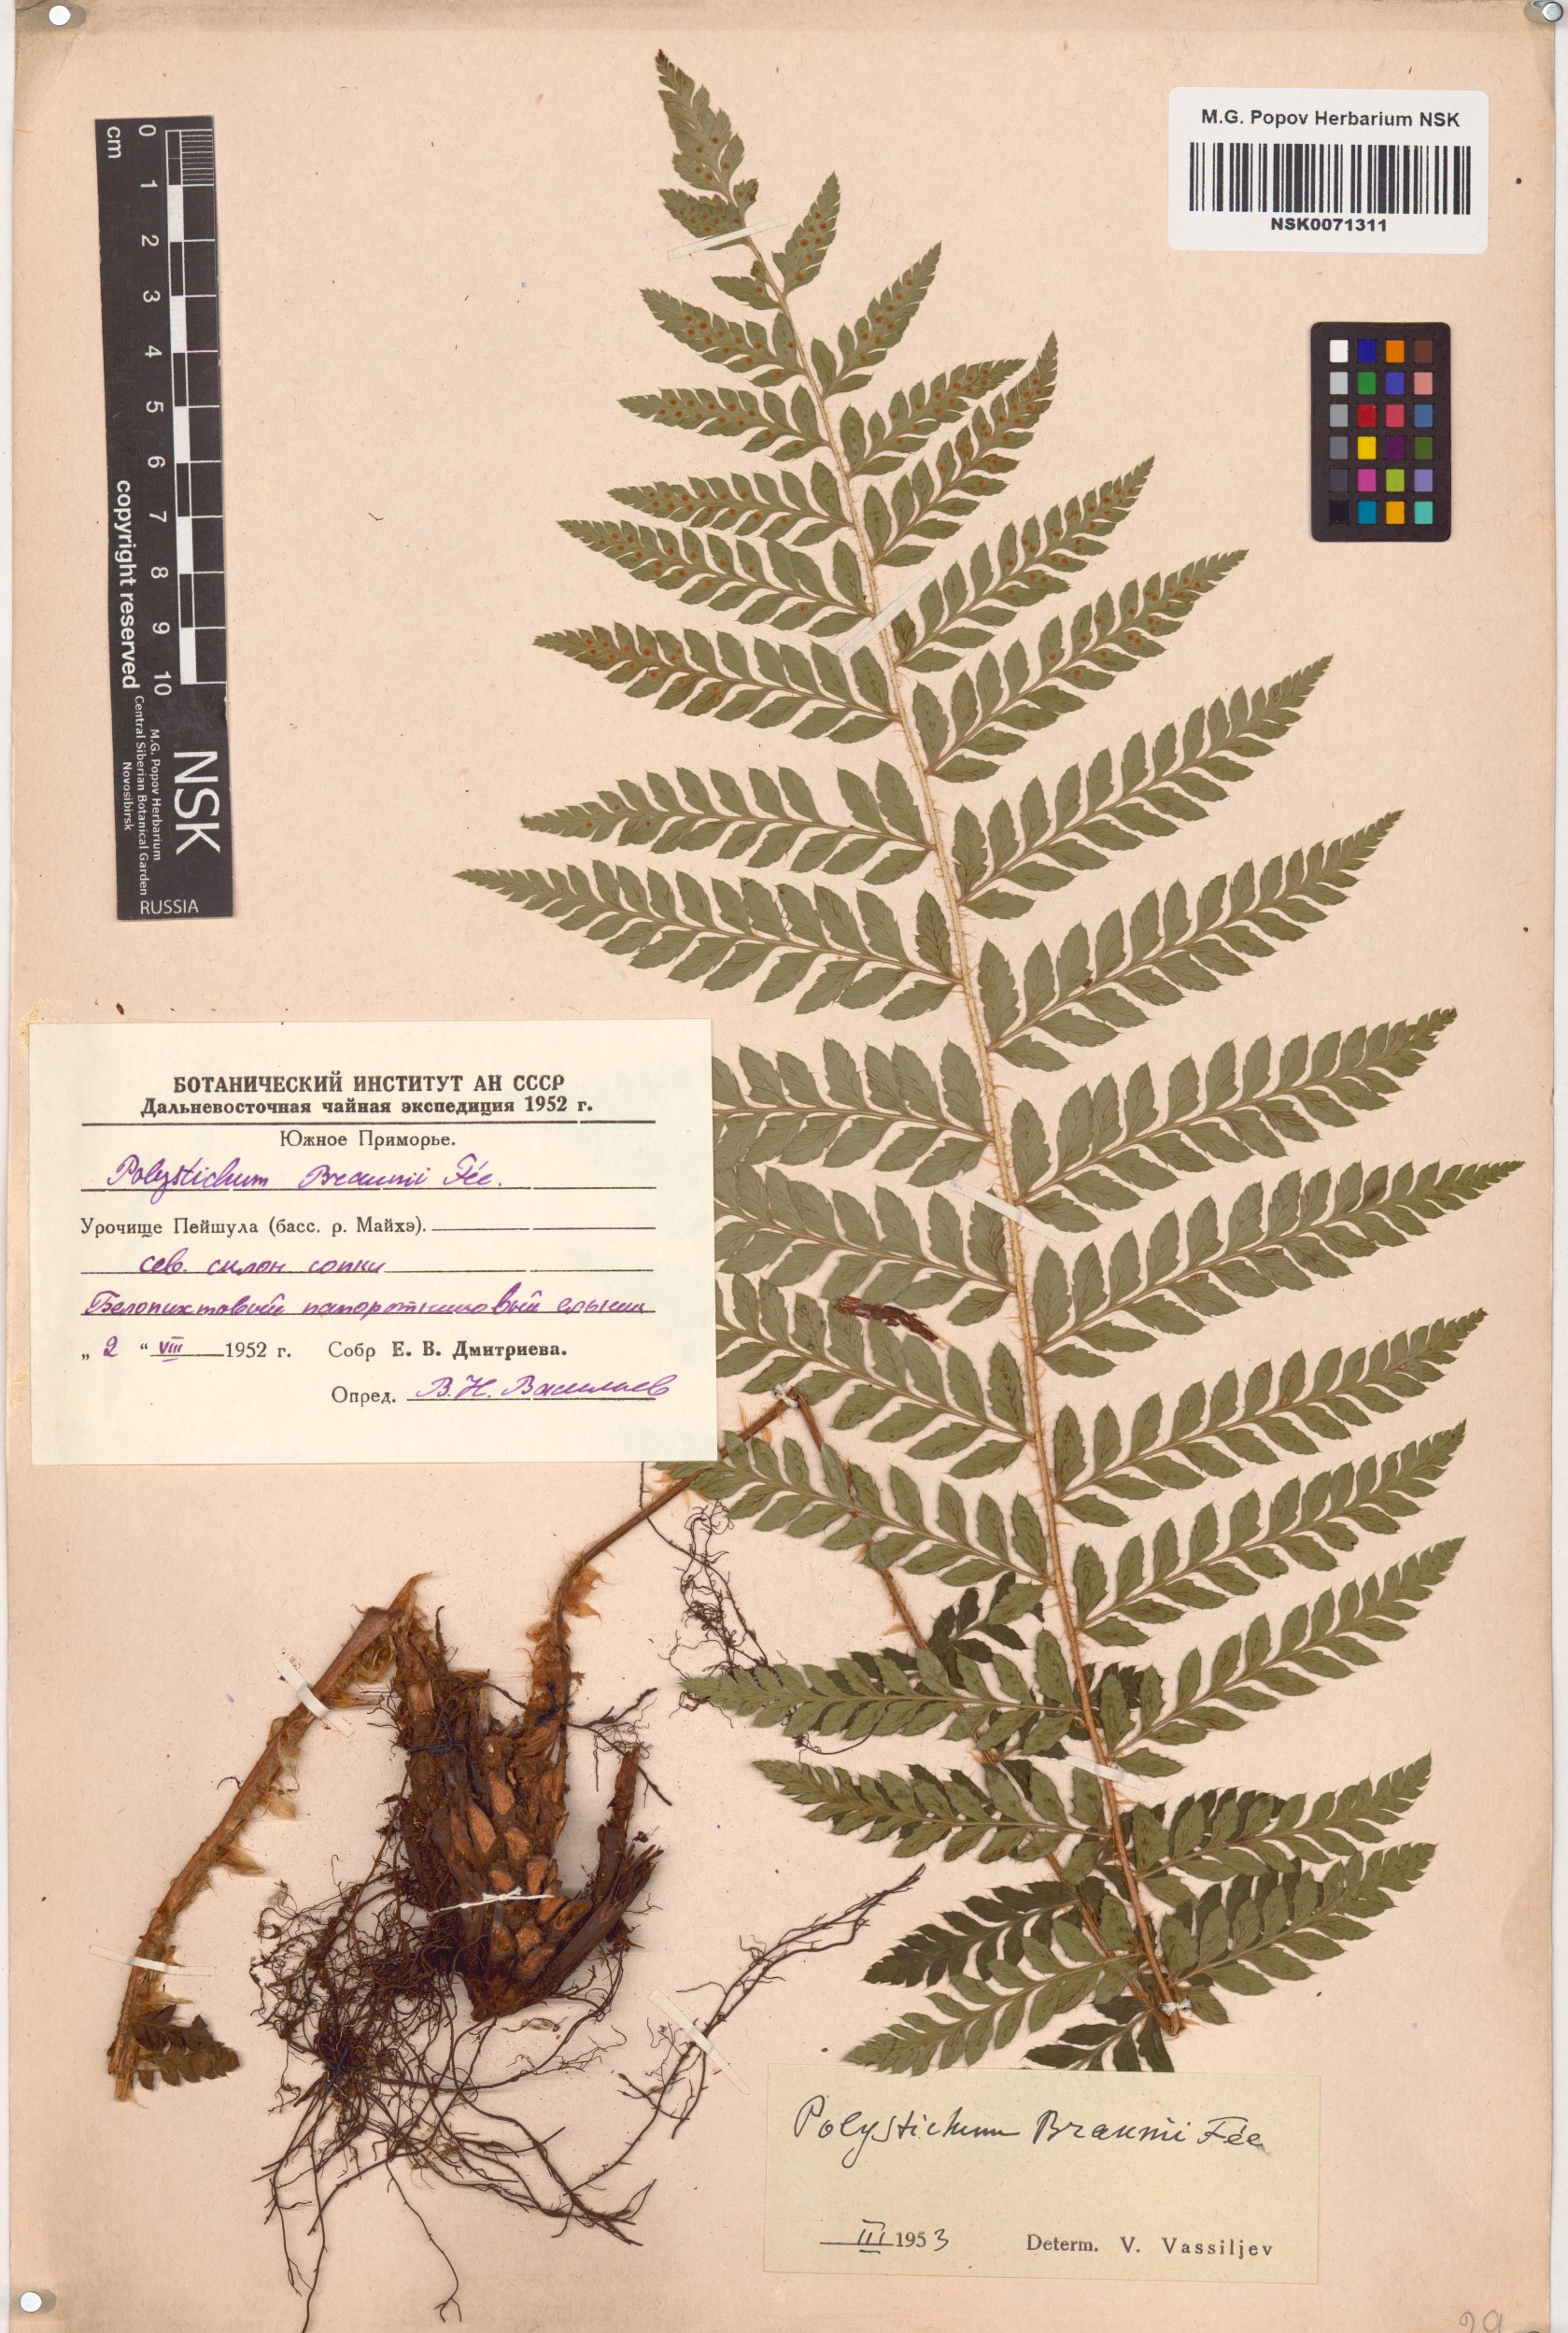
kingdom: Plantae
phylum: Tracheophyta
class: Polypodiopsida
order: Polypodiales
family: Dryopteridaceae
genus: Polystichum
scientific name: Polystichum braunii
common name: Braun's holly fern
